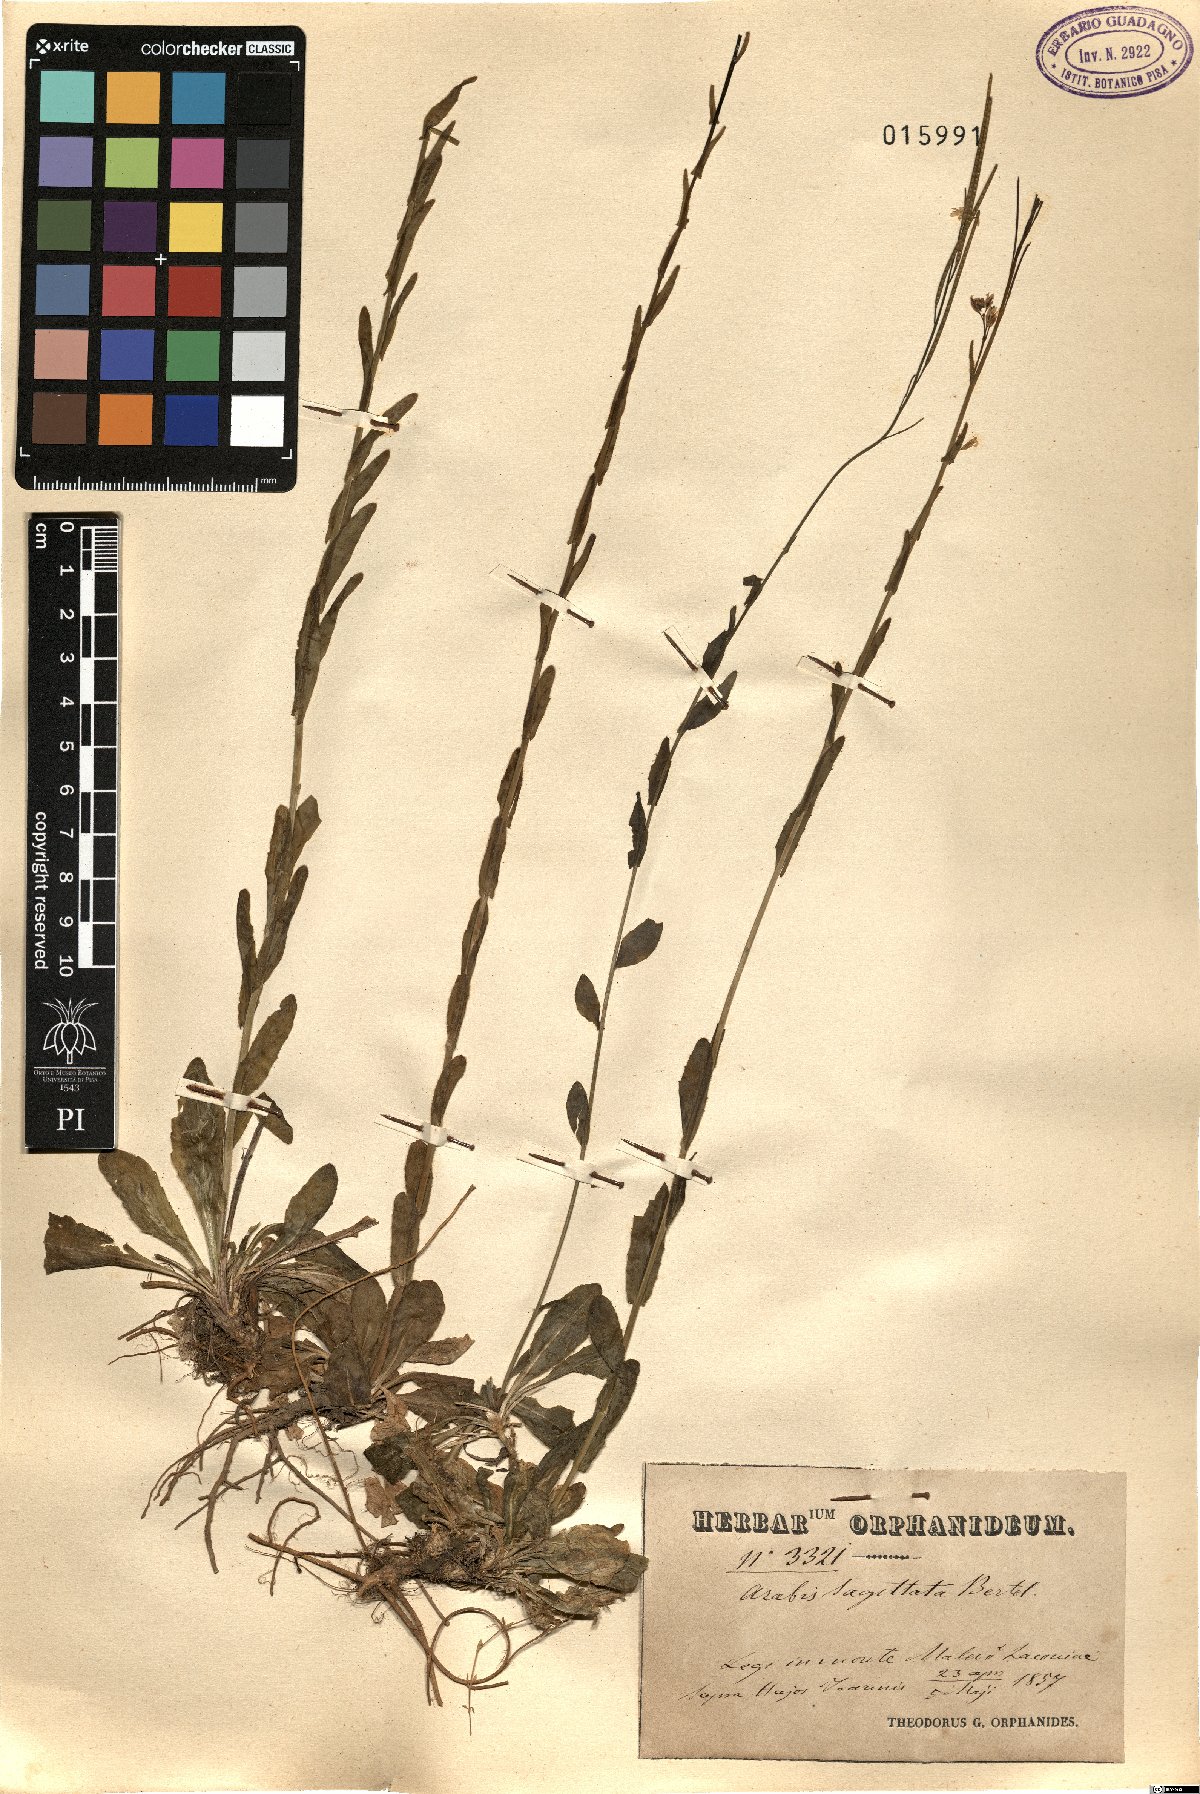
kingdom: Plantae
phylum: Tracheophyta
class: Magnoliopsida
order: Brassicales
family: Brassicaceae
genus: Arabis
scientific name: Arabis sagittata
